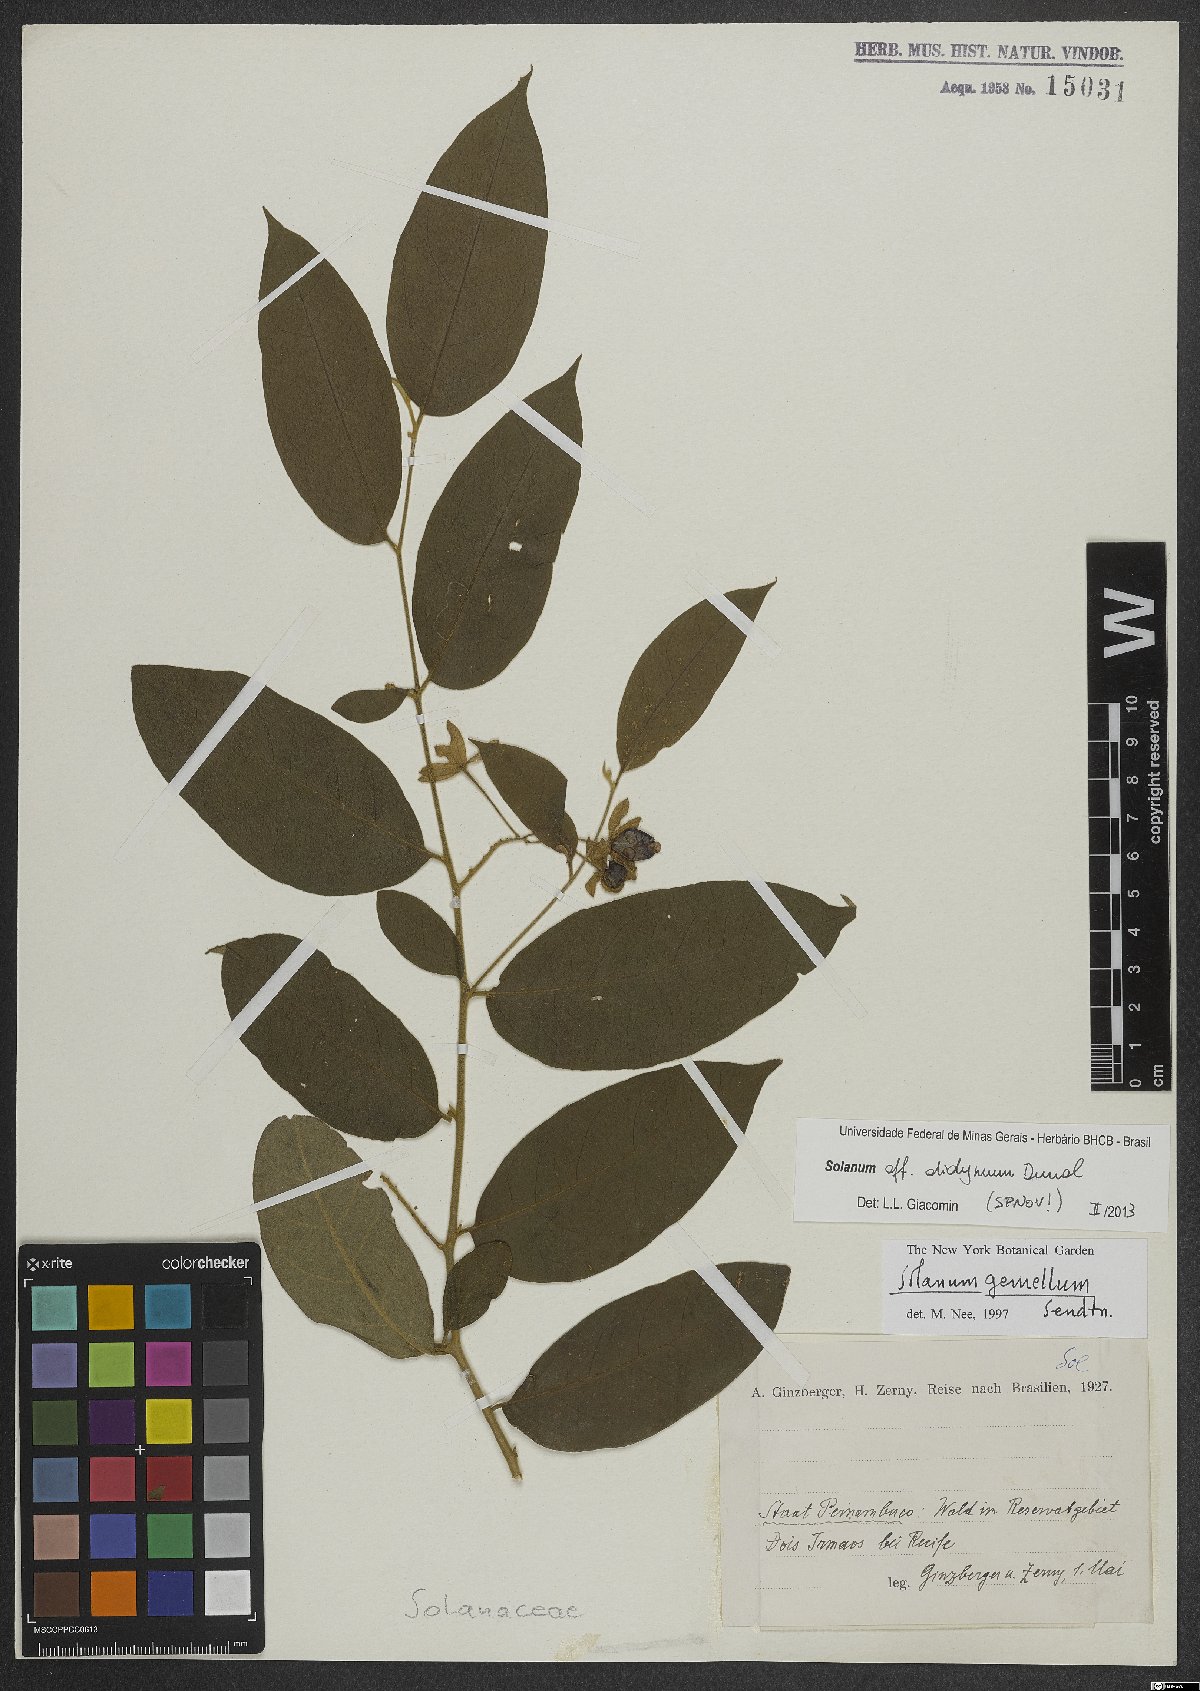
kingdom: Plantae
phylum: Tracheophyta
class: Magnoliopsida
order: Solanales
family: Solanaceae
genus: Solanum
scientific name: Solanum didymum
